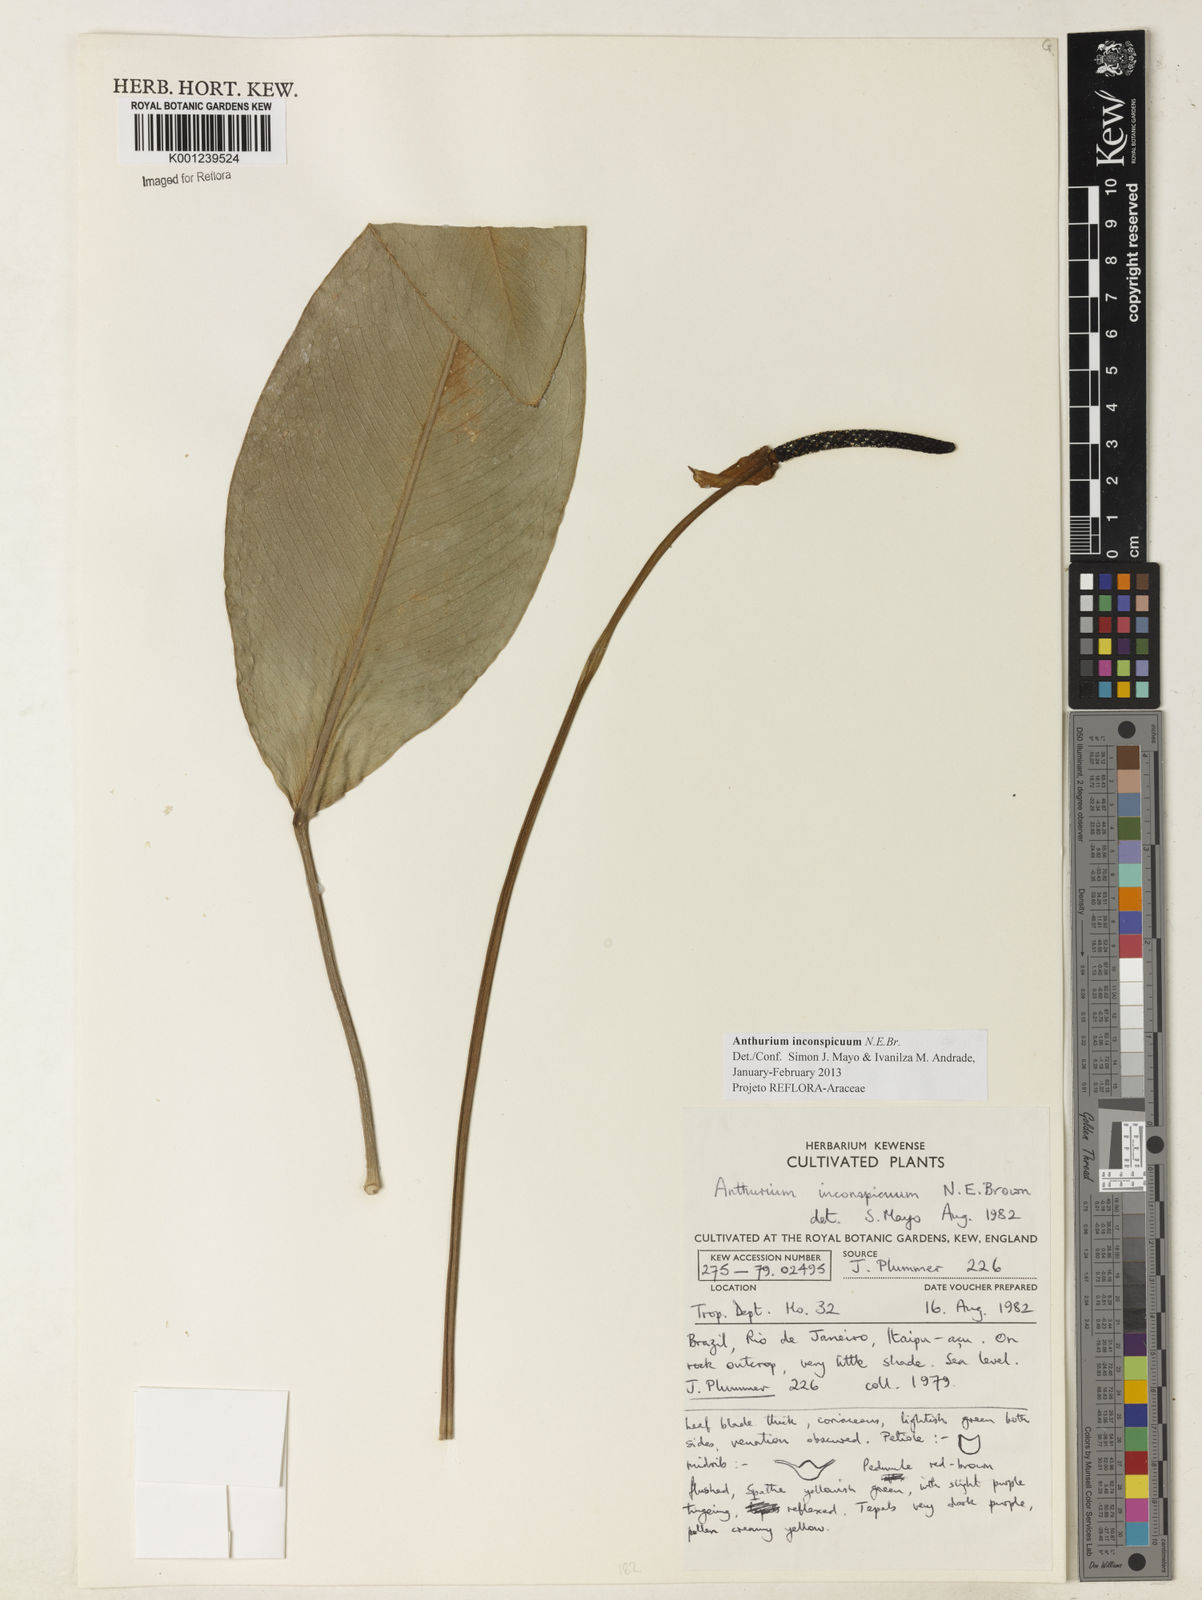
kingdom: Plantae
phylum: Tracheophyta
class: Liliopsida
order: Alismatales
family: Araceae
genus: Anthurium
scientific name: Anthurium inconspicuum
